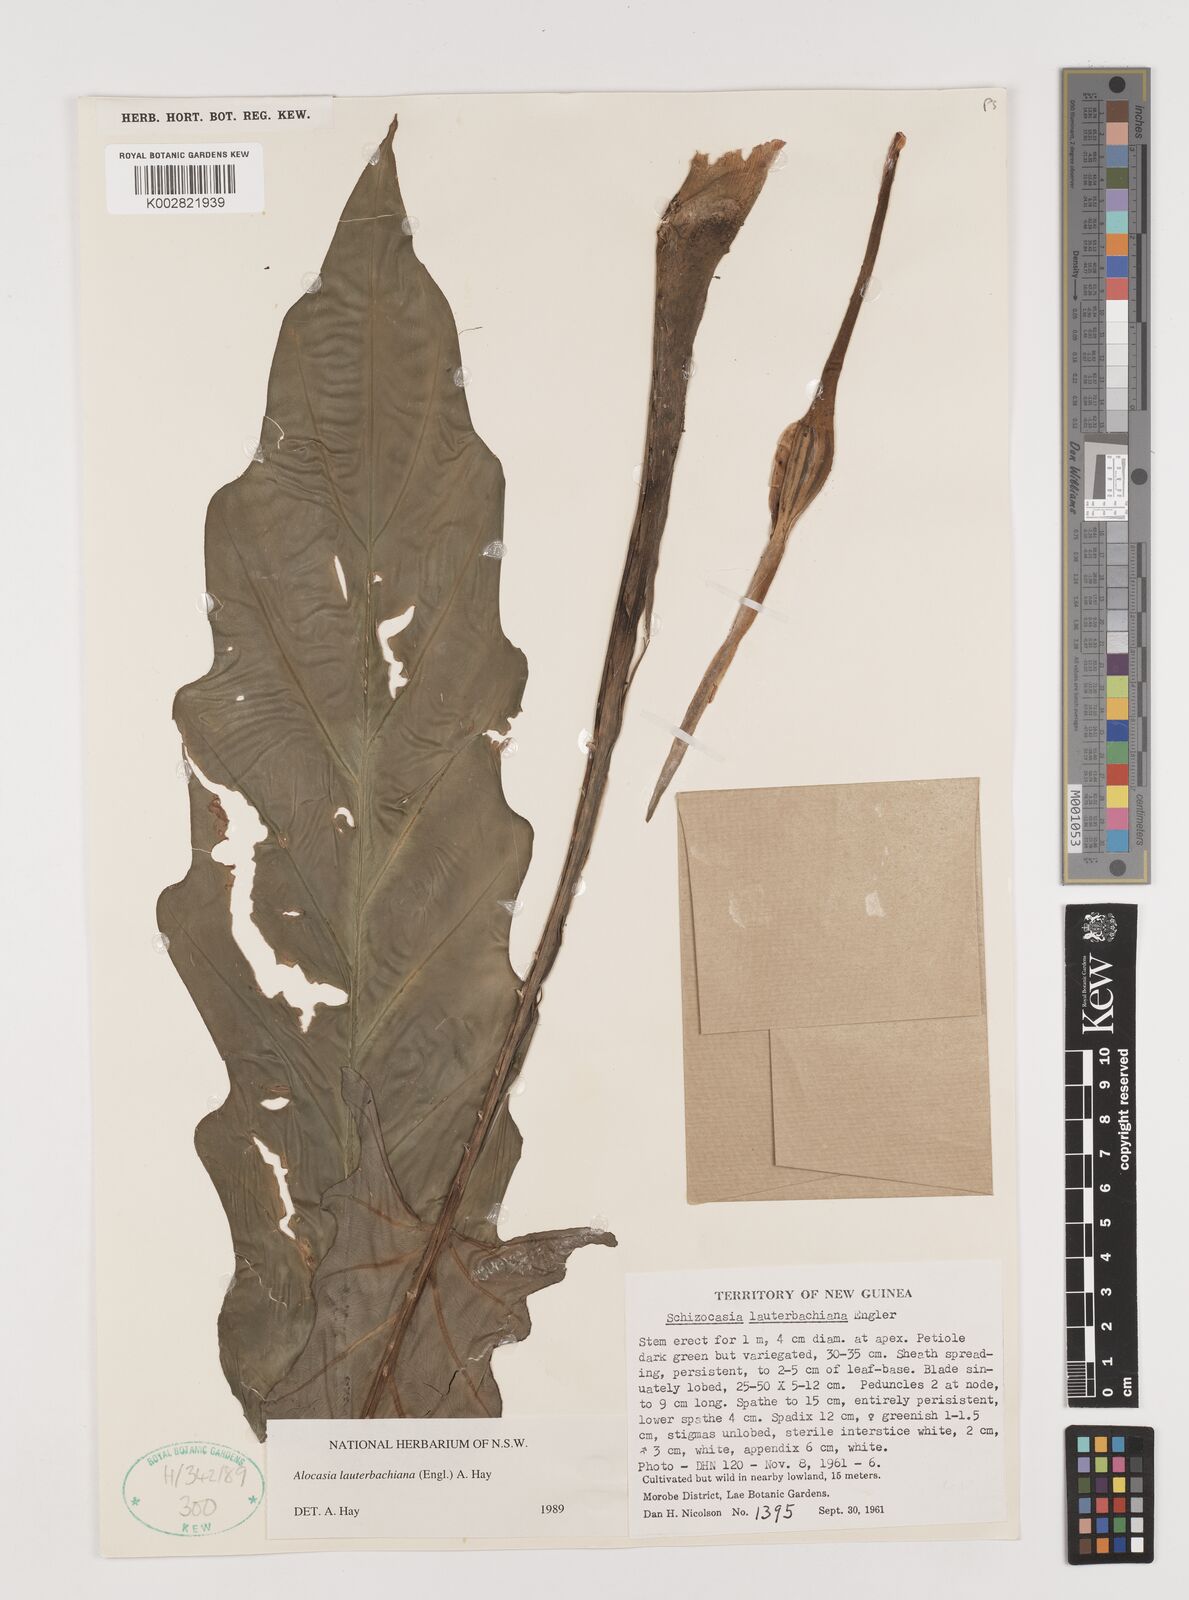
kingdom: Plantae
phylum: Tracheophyta
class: Liliopsida
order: Alismatales
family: Araceae
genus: Alocasia
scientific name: Alocasia lauterbachiana
